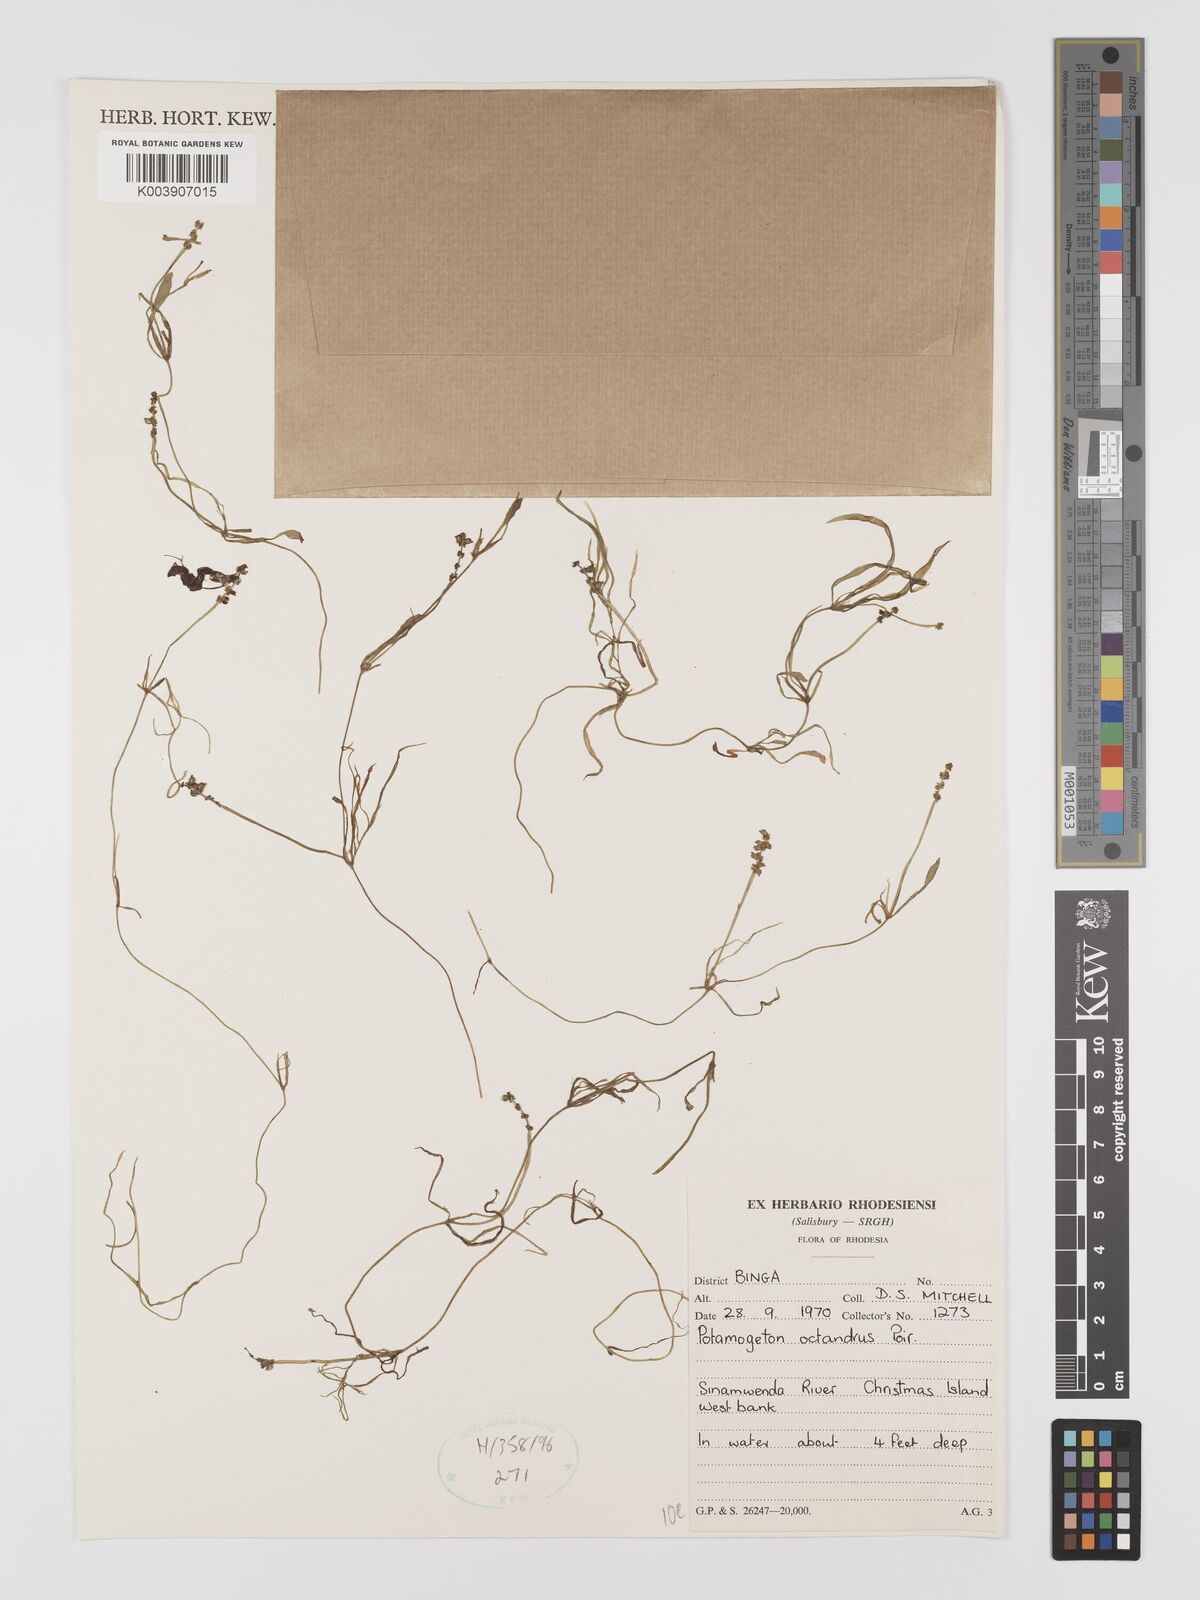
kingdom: Plantae
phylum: Tracheophyta
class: Liliopsida
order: Alismatales
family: Potamogetonaceae
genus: Potamogeton
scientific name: Potamogeton octandrus
